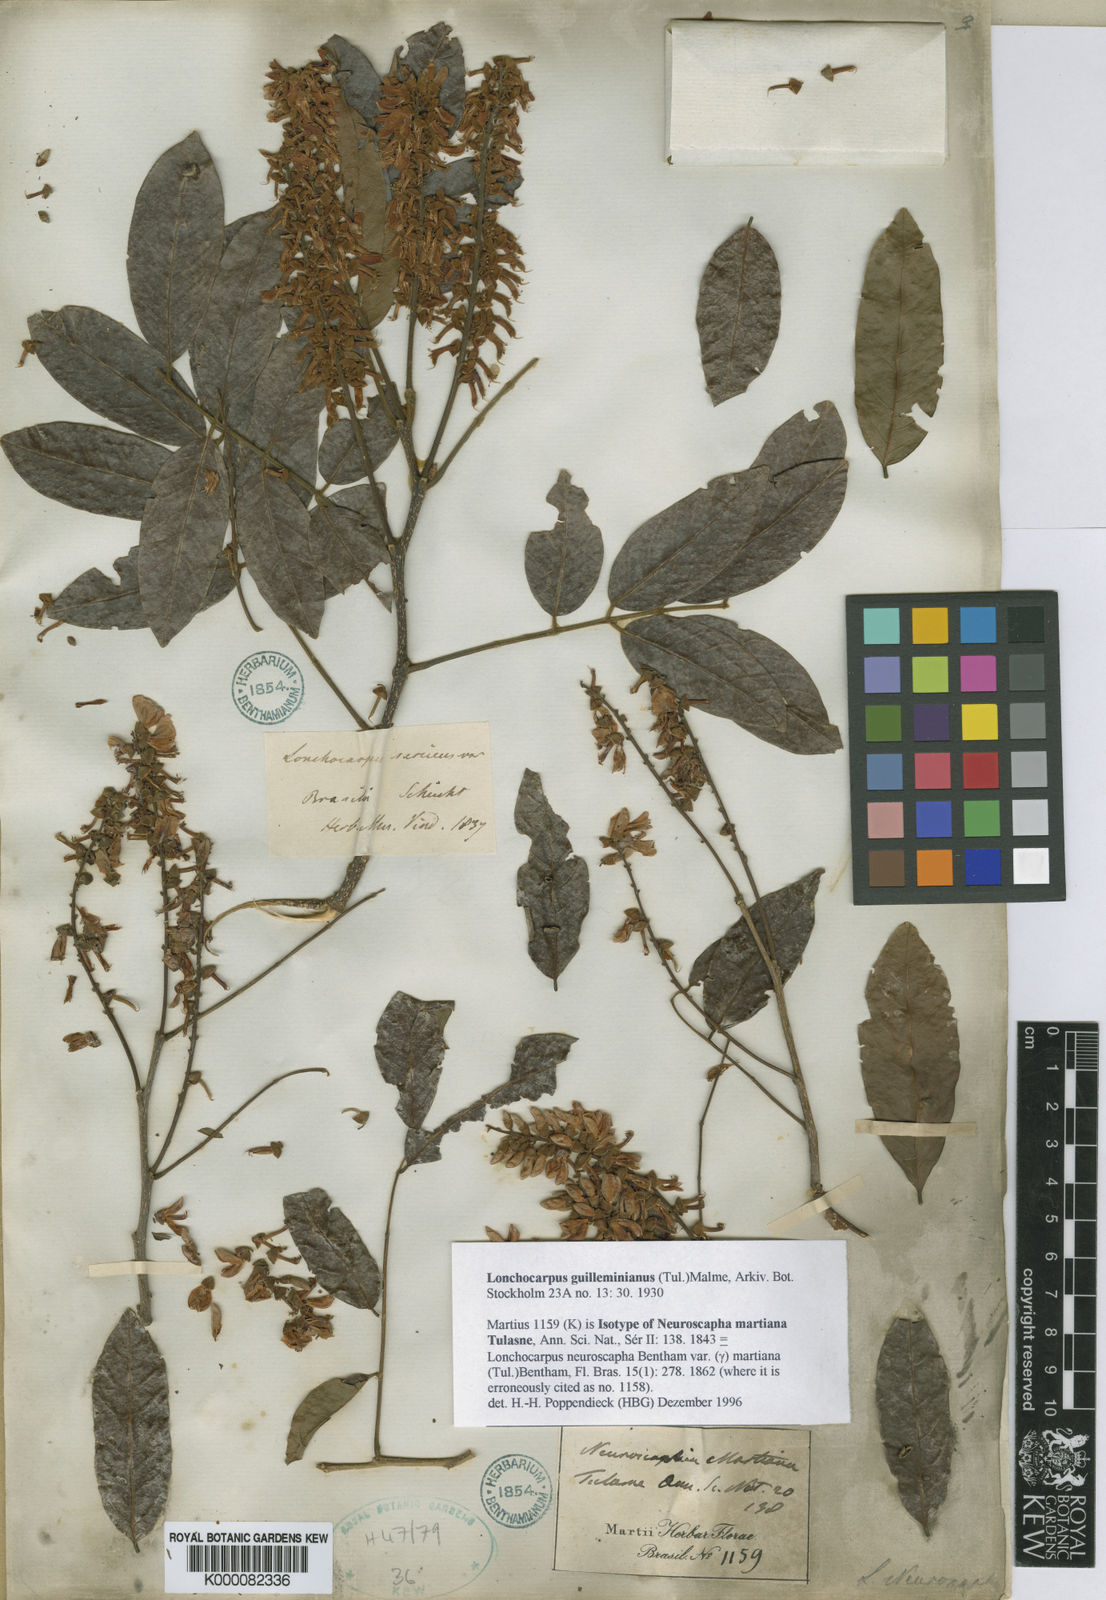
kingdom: Plantae
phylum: Tracheophyta
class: Magnoliopsida
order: Fabales
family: Fabaceae
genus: Lonchocarpus
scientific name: Lonchocarpus
